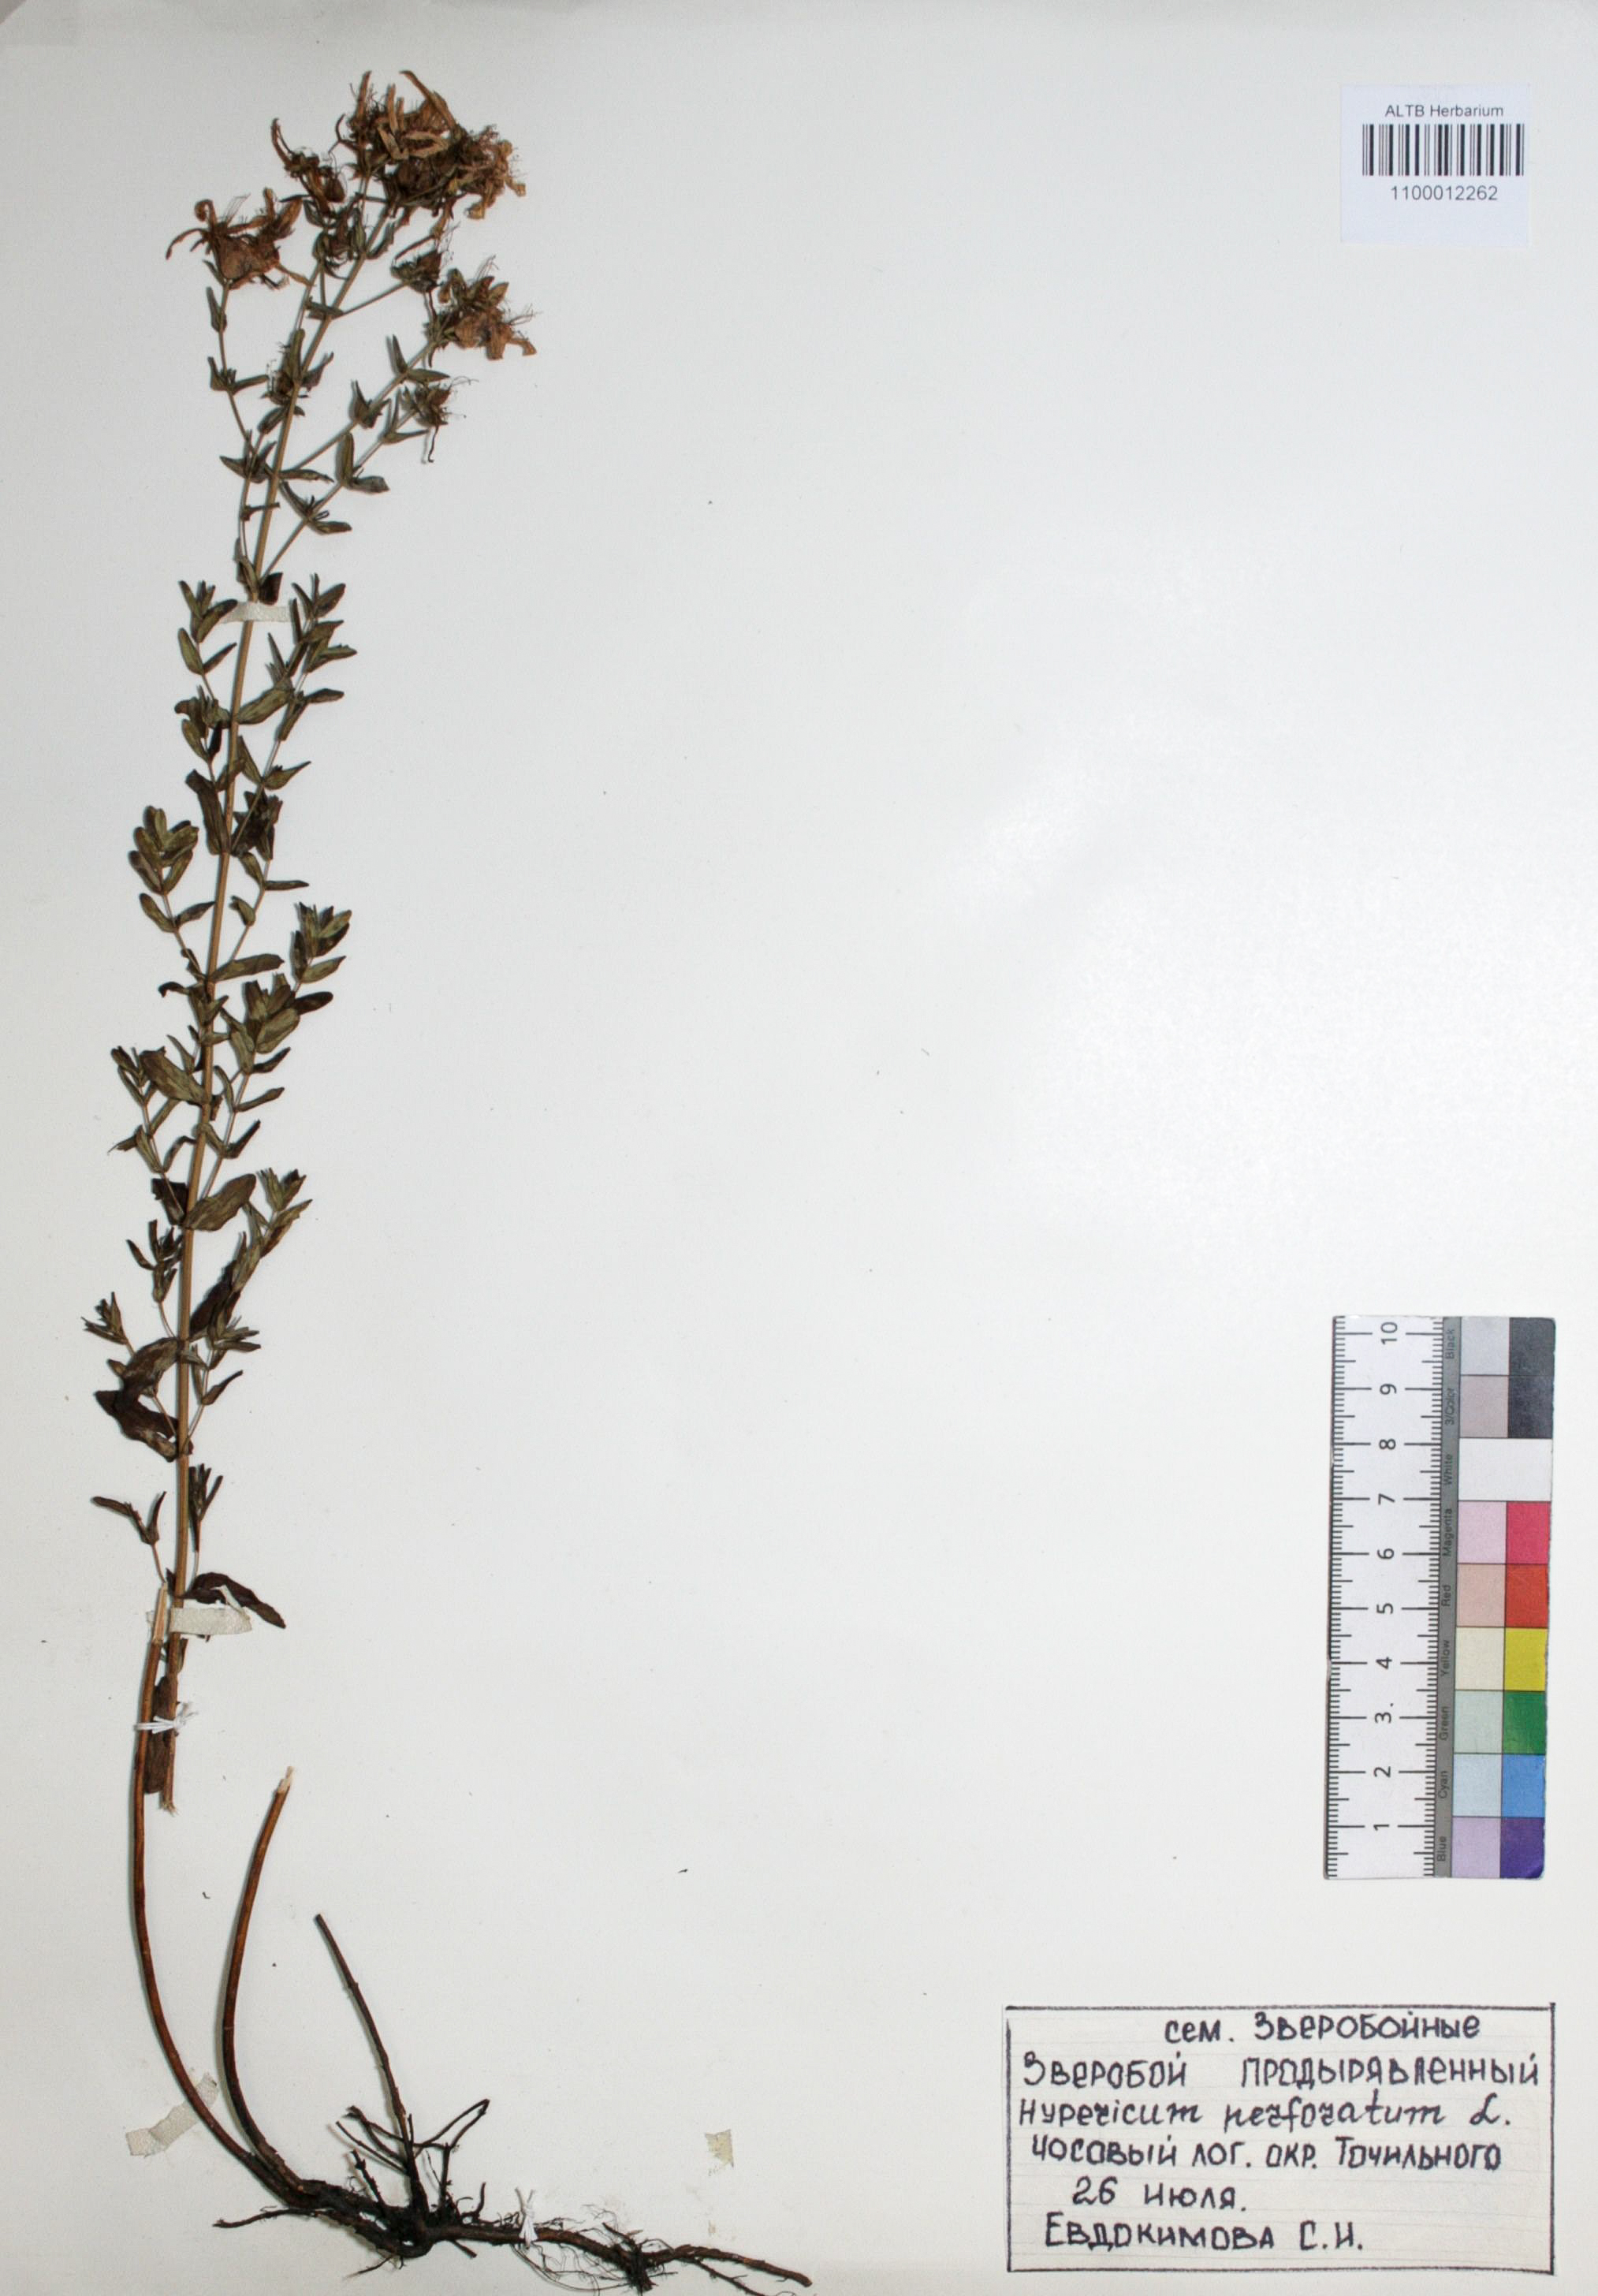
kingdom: Plantae
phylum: Tracheophyta
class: Magnoliopsida
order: Malpighiales
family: Hypericaceae
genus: Hypericum
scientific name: Hypericum perforatum
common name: Common st. johnswort
